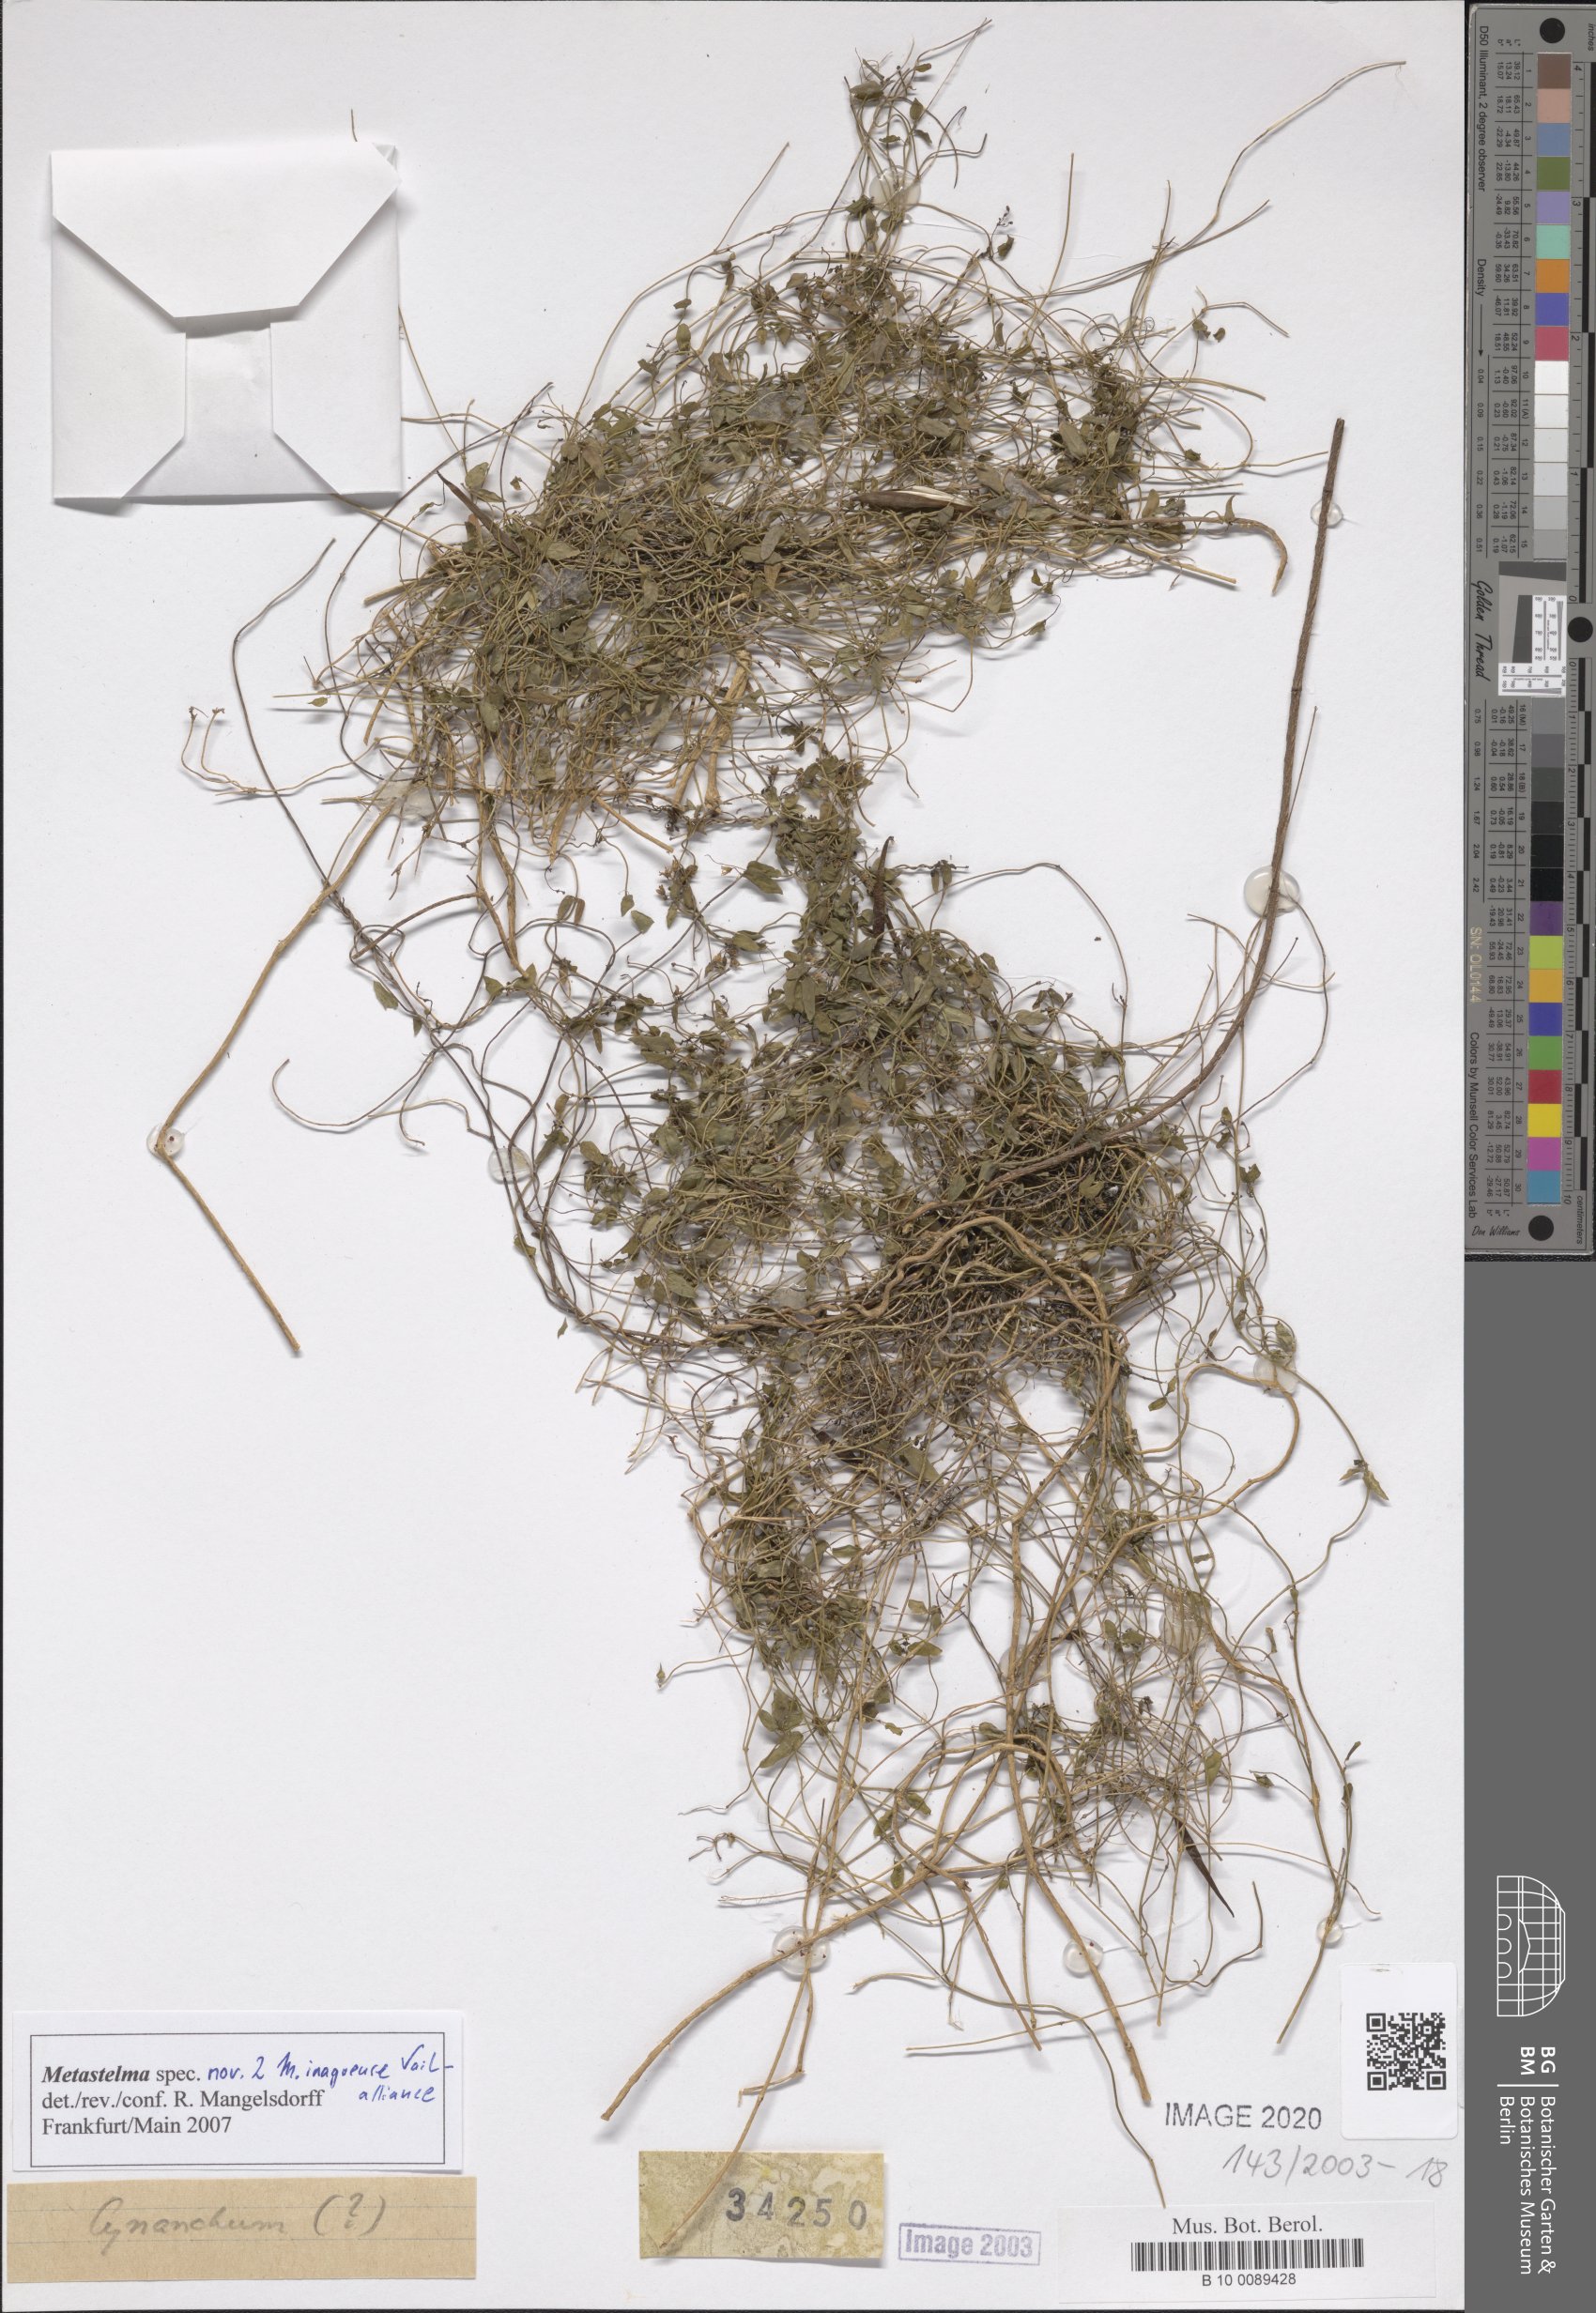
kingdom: Plantae
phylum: Tracheophyta
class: Magnoliopsida
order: Gentianales
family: Apocynaceae
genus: Metastelma
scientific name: Metastelma inaguense
